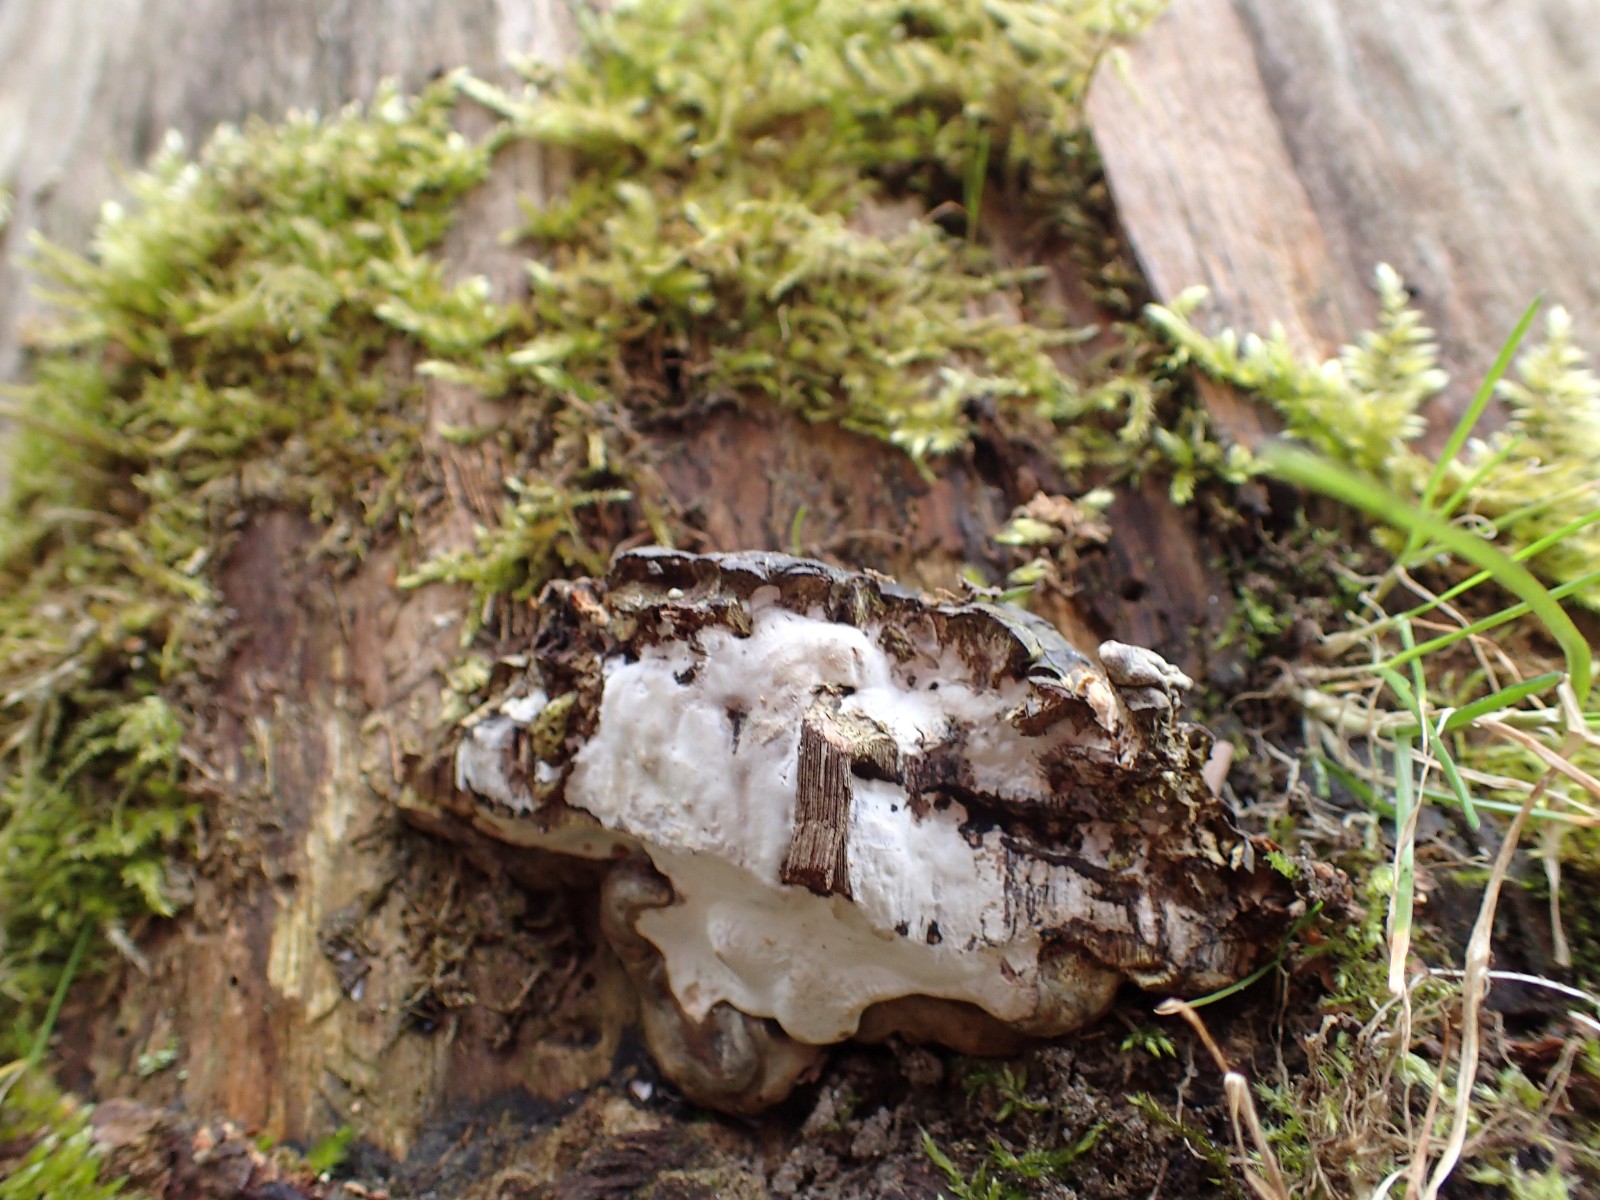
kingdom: Fungi
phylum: Basidiomycota
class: Agaricomycetes
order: Russulales
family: Bondarzewiaceae
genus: Heterobasidion
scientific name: Heterobasidion annosum
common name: almindelig rodfordærver
